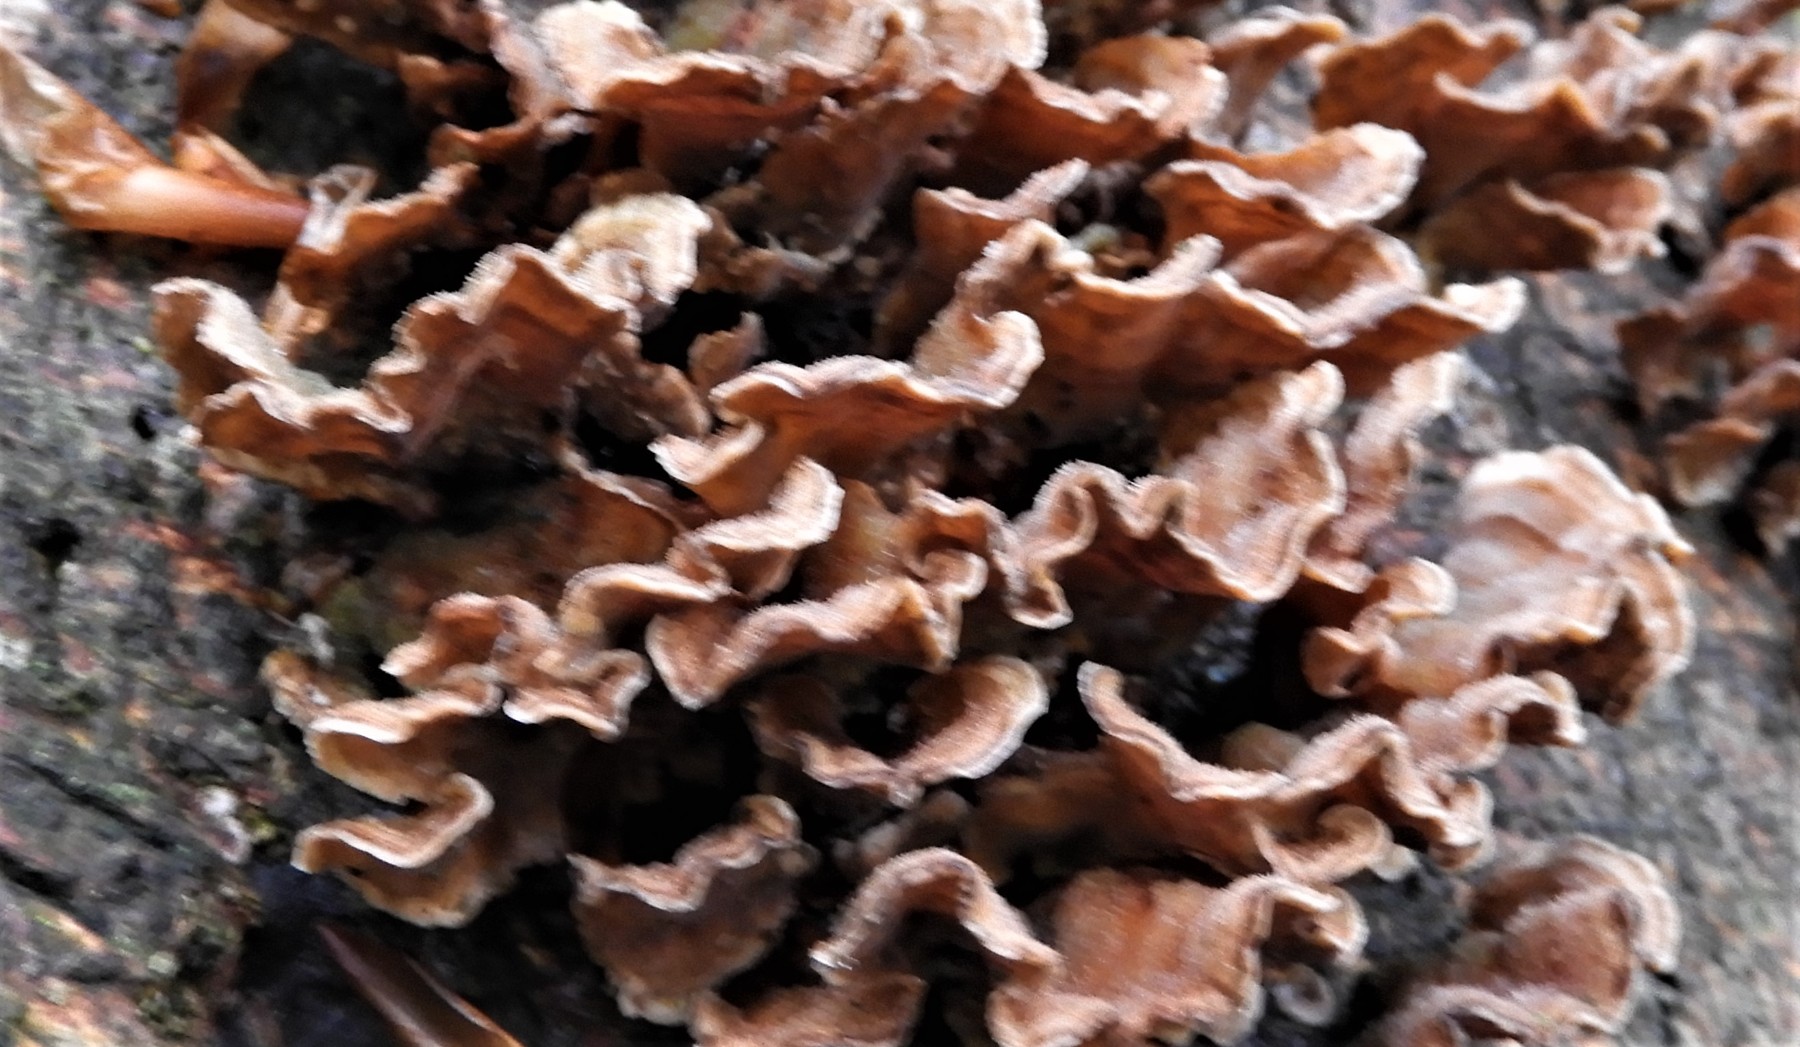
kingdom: Fungi
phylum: Basidiomycota
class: Agaricomycetes
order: Russulales
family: Stereaceae
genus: Stereum
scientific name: Stereum subtomentosum
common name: smuk lædersvamp
